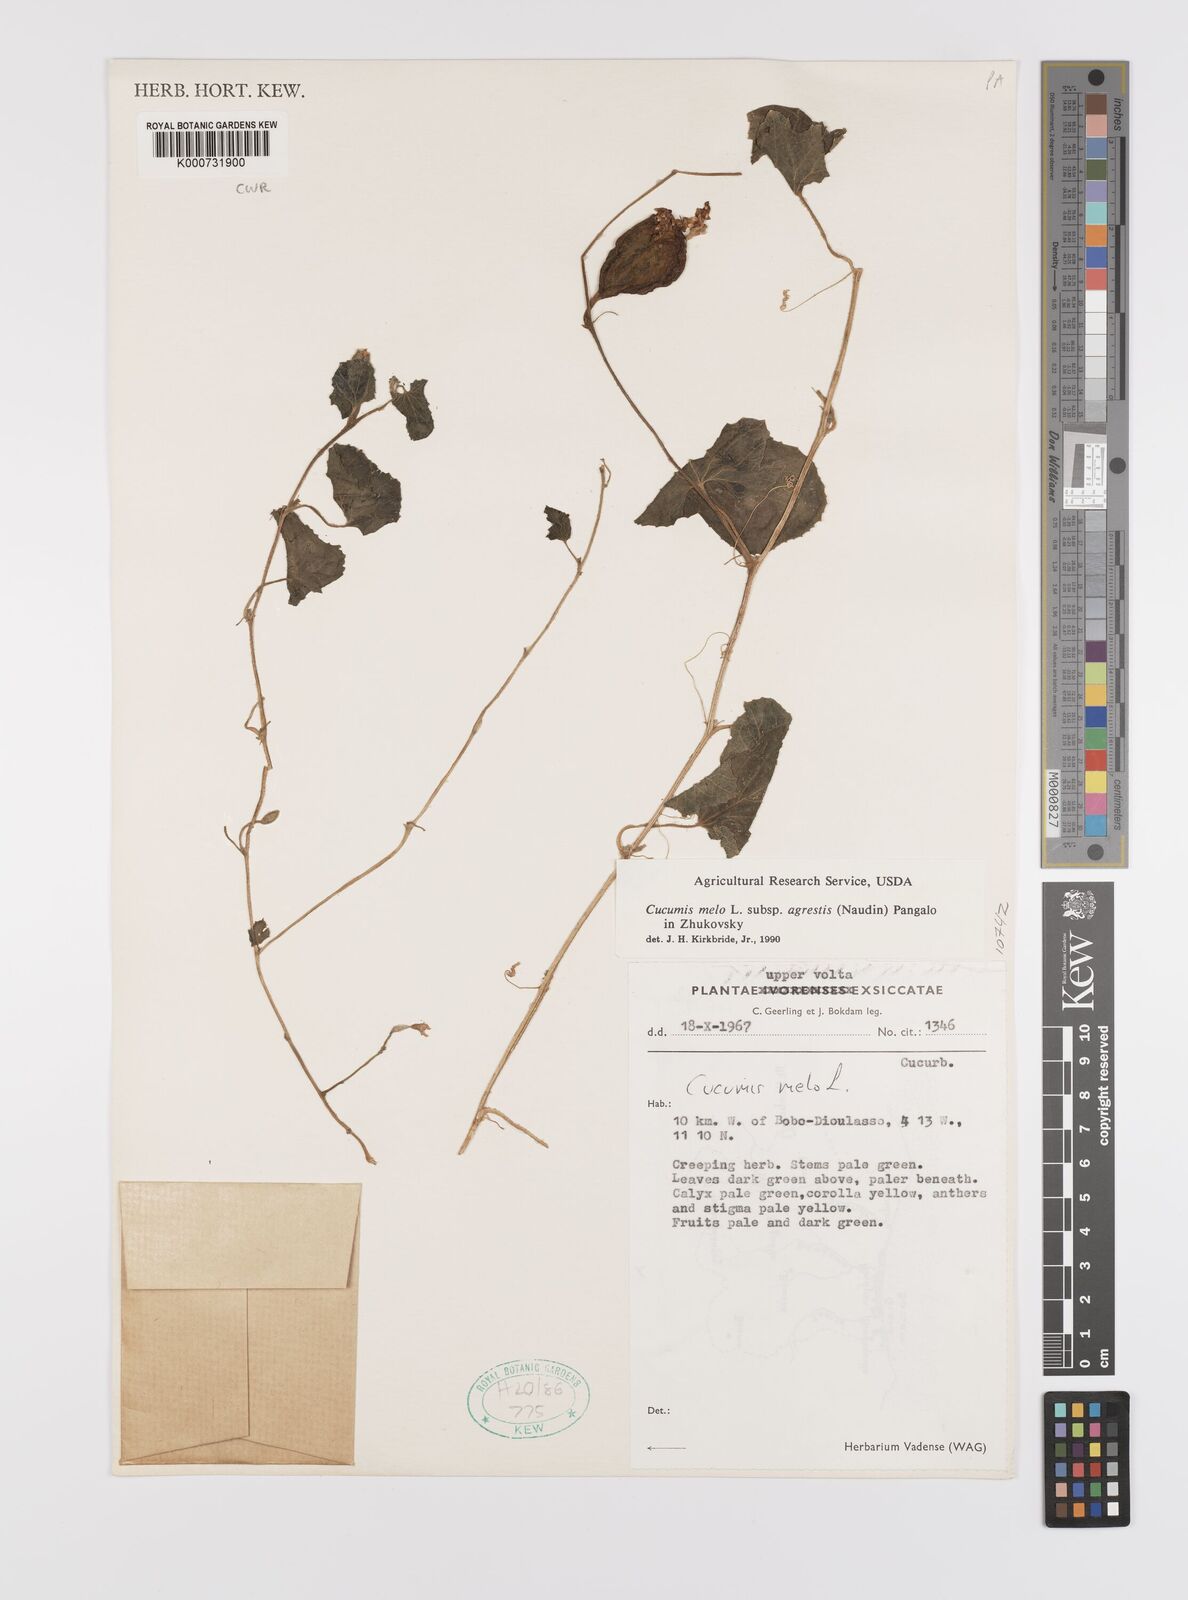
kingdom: Plantae
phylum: Tracheophyta
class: Magnoliopsida
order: Cucurbitales
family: Cucurbitaceae
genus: Cucumis
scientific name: Cucumis melo
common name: Melon
